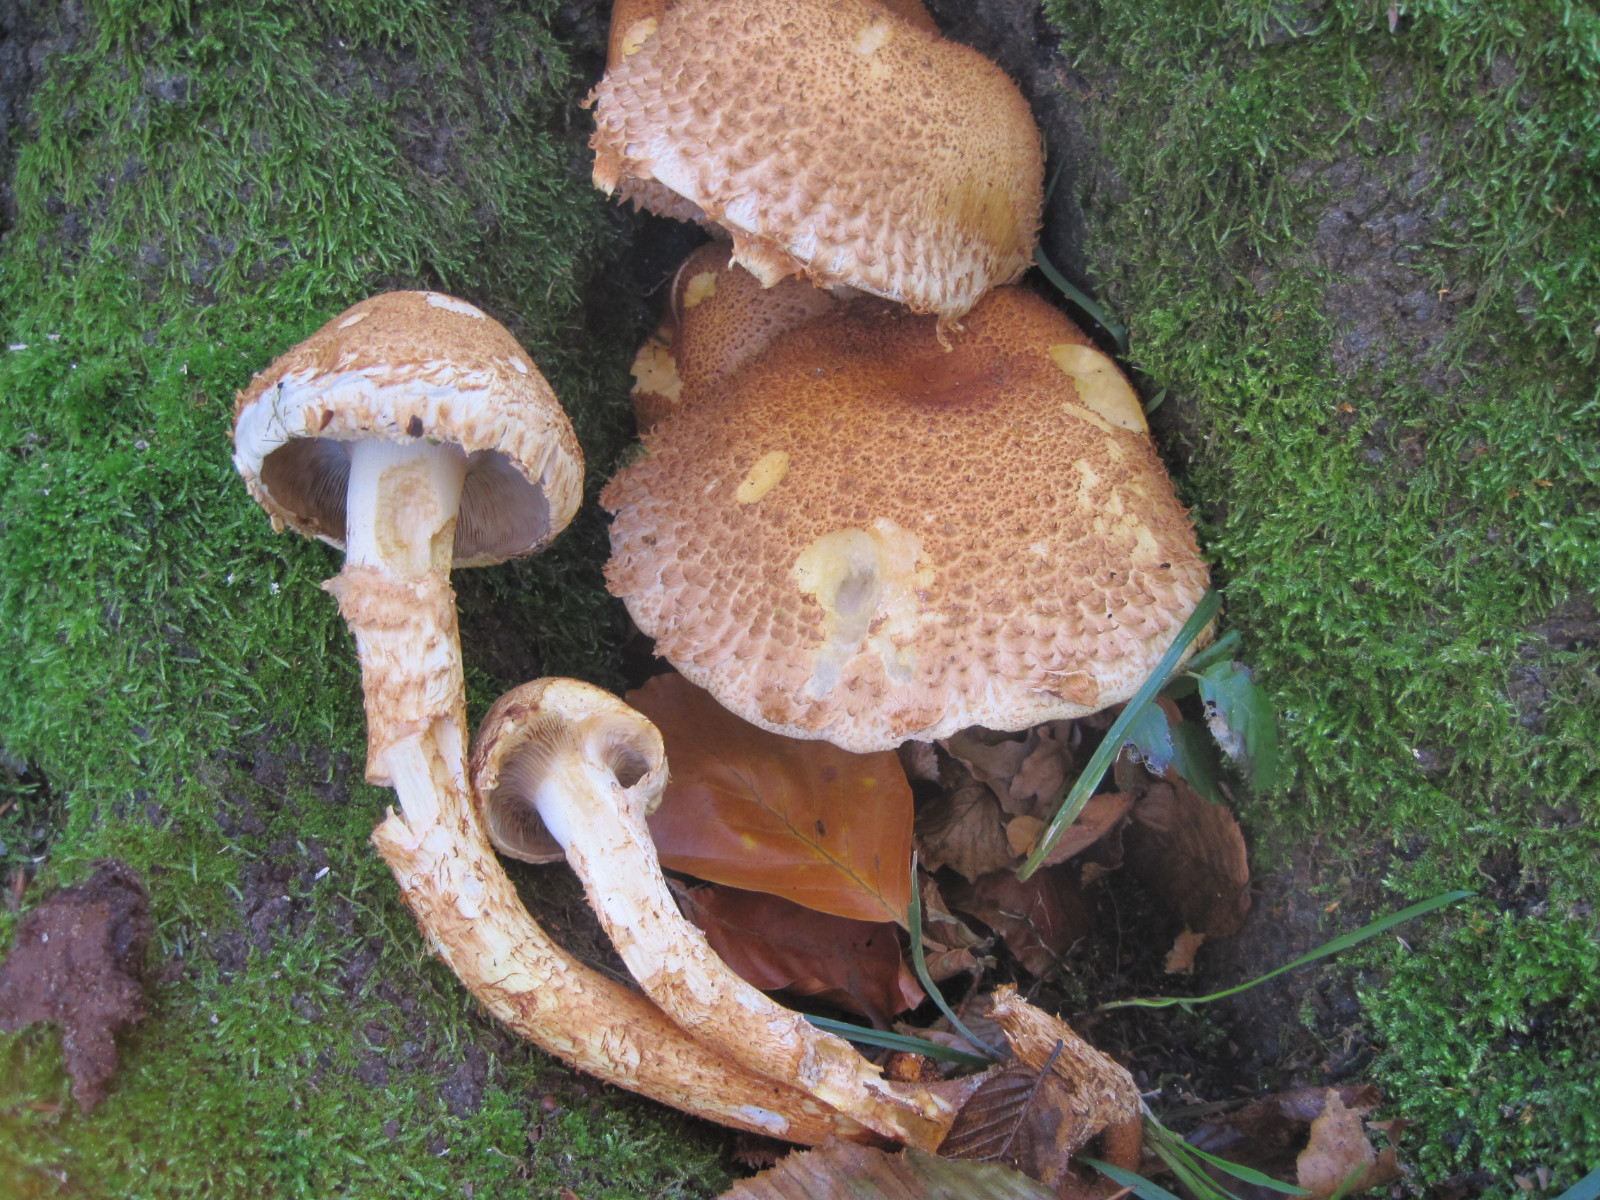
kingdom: Fungi
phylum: Basidiomycota
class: Agaricomycetes
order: Agaricales
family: Strophariaceae
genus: Pholiota
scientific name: Pholiota squarrosa
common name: krumskællet skælhat
